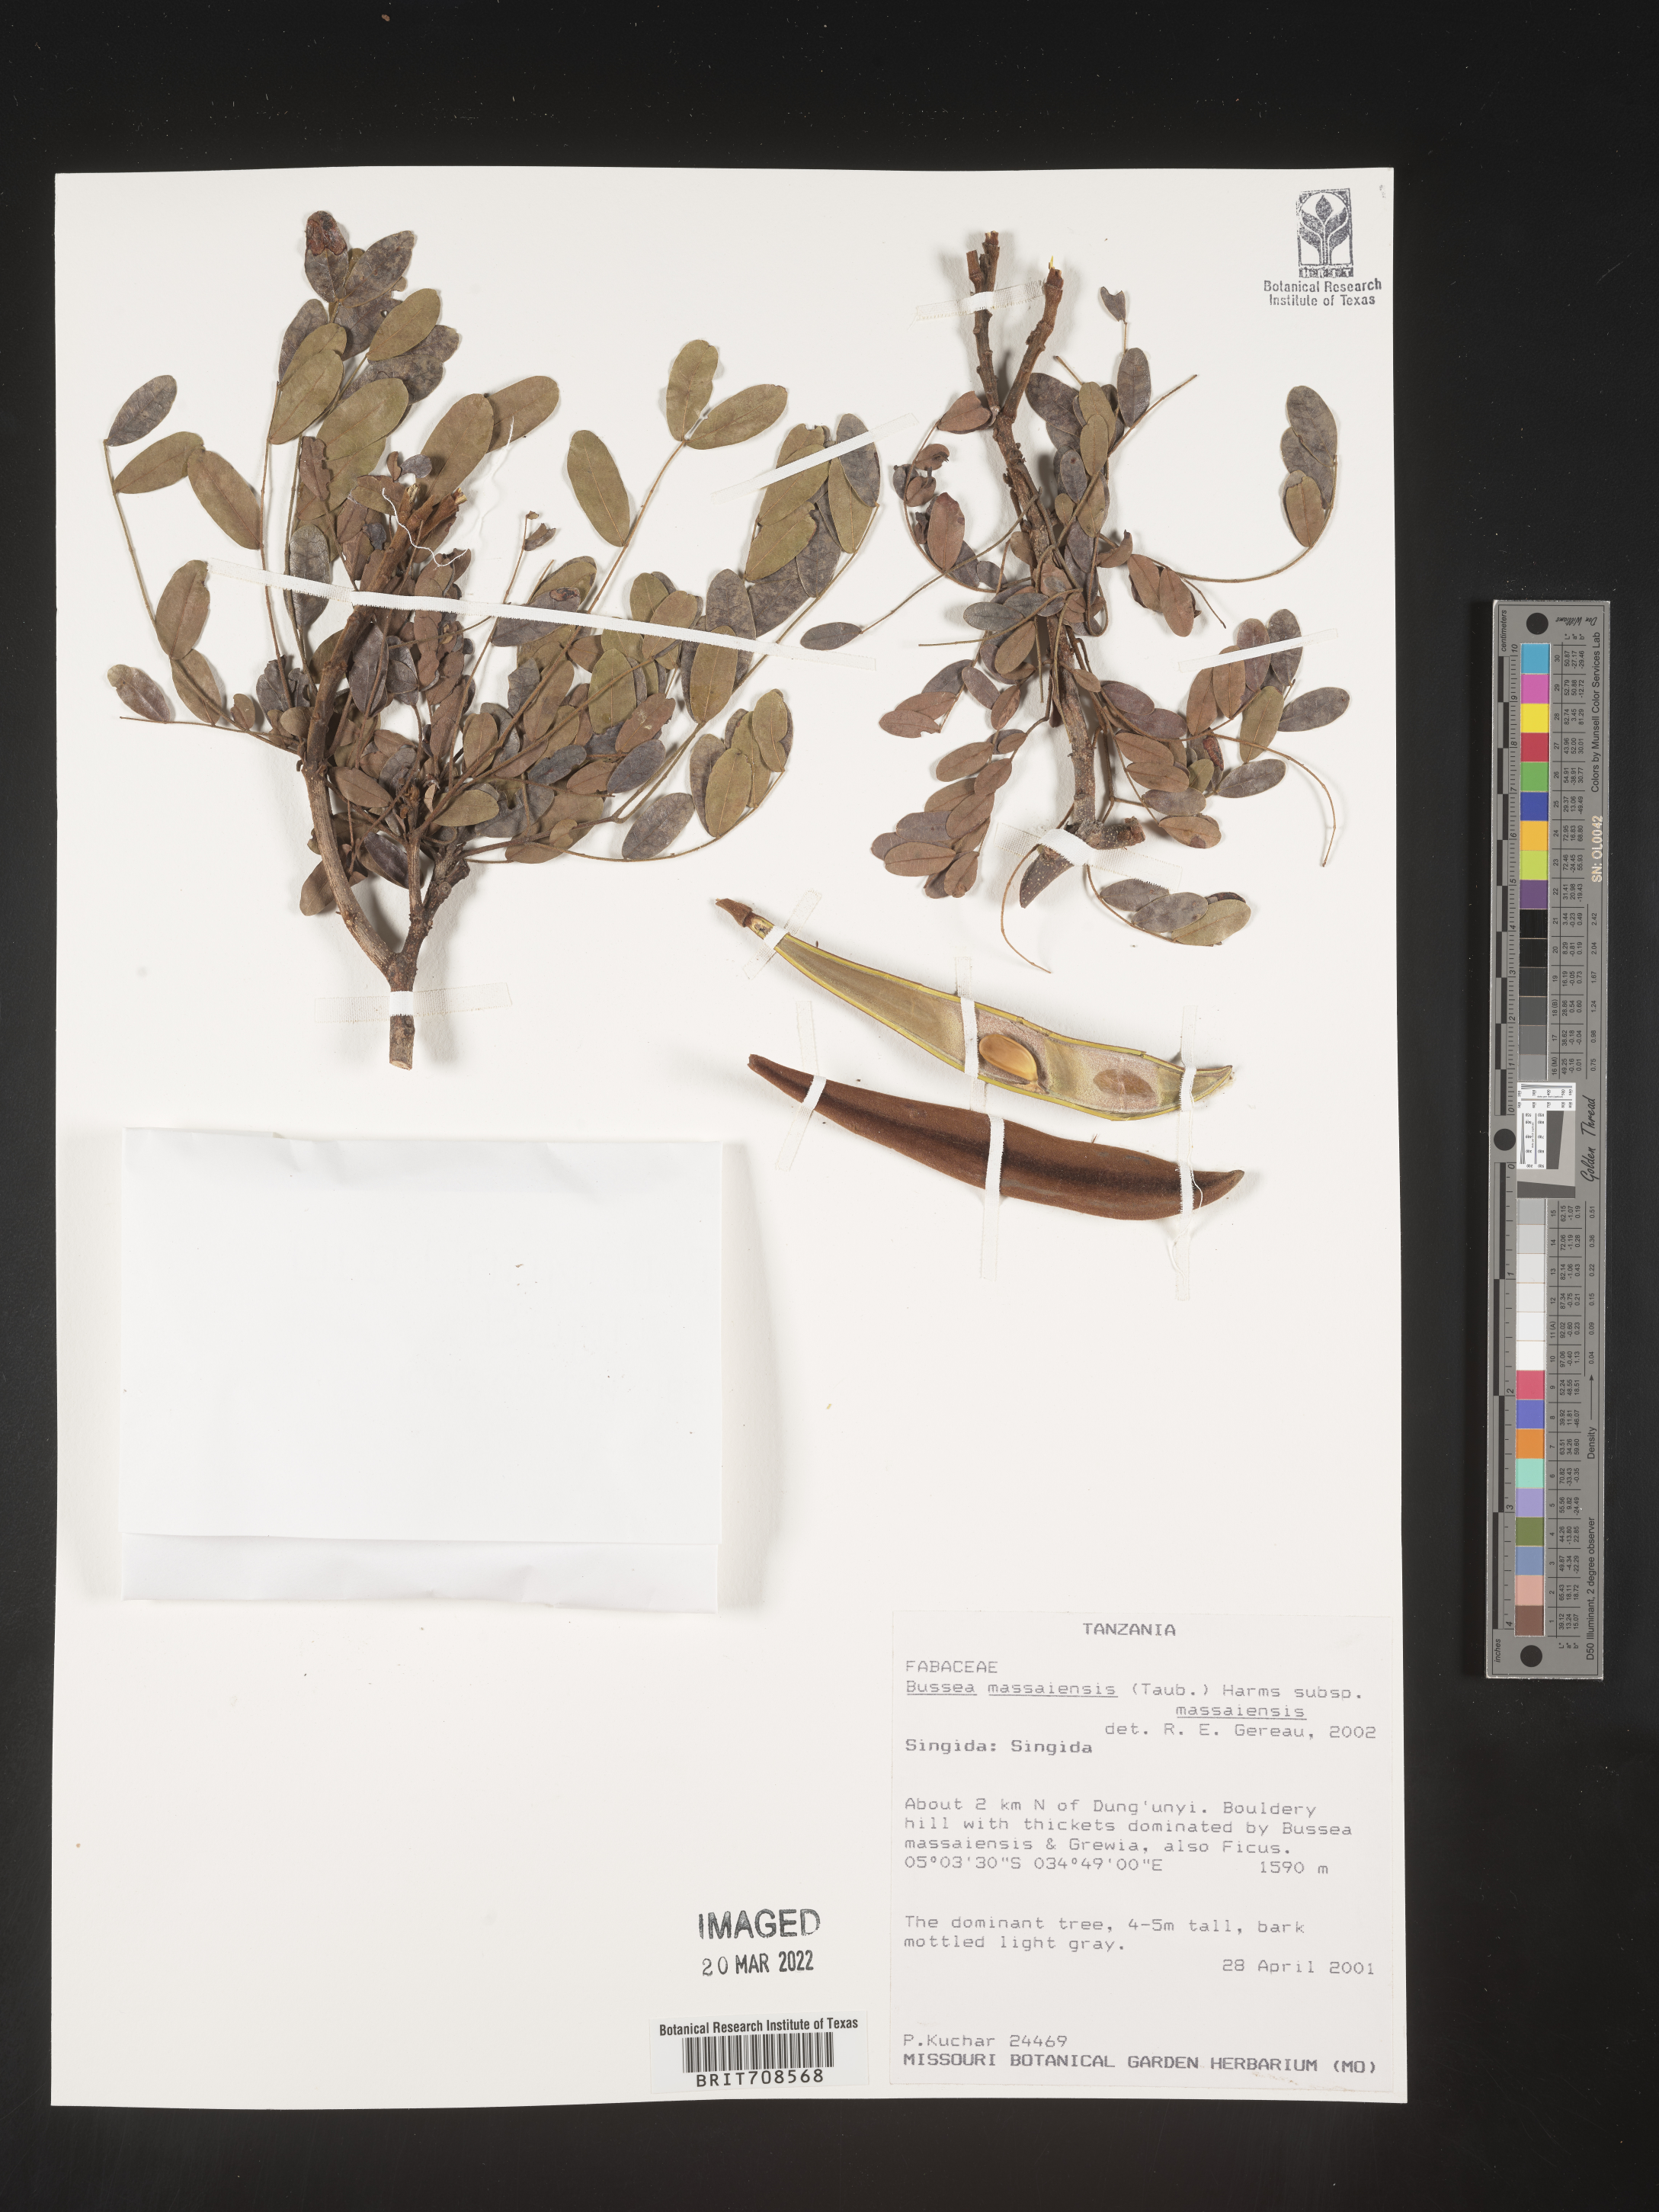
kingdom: Plantae
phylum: Tracheophyta
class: Magnoliopsida
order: Fabales
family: Fabaceae
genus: Bussea
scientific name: Bussea
